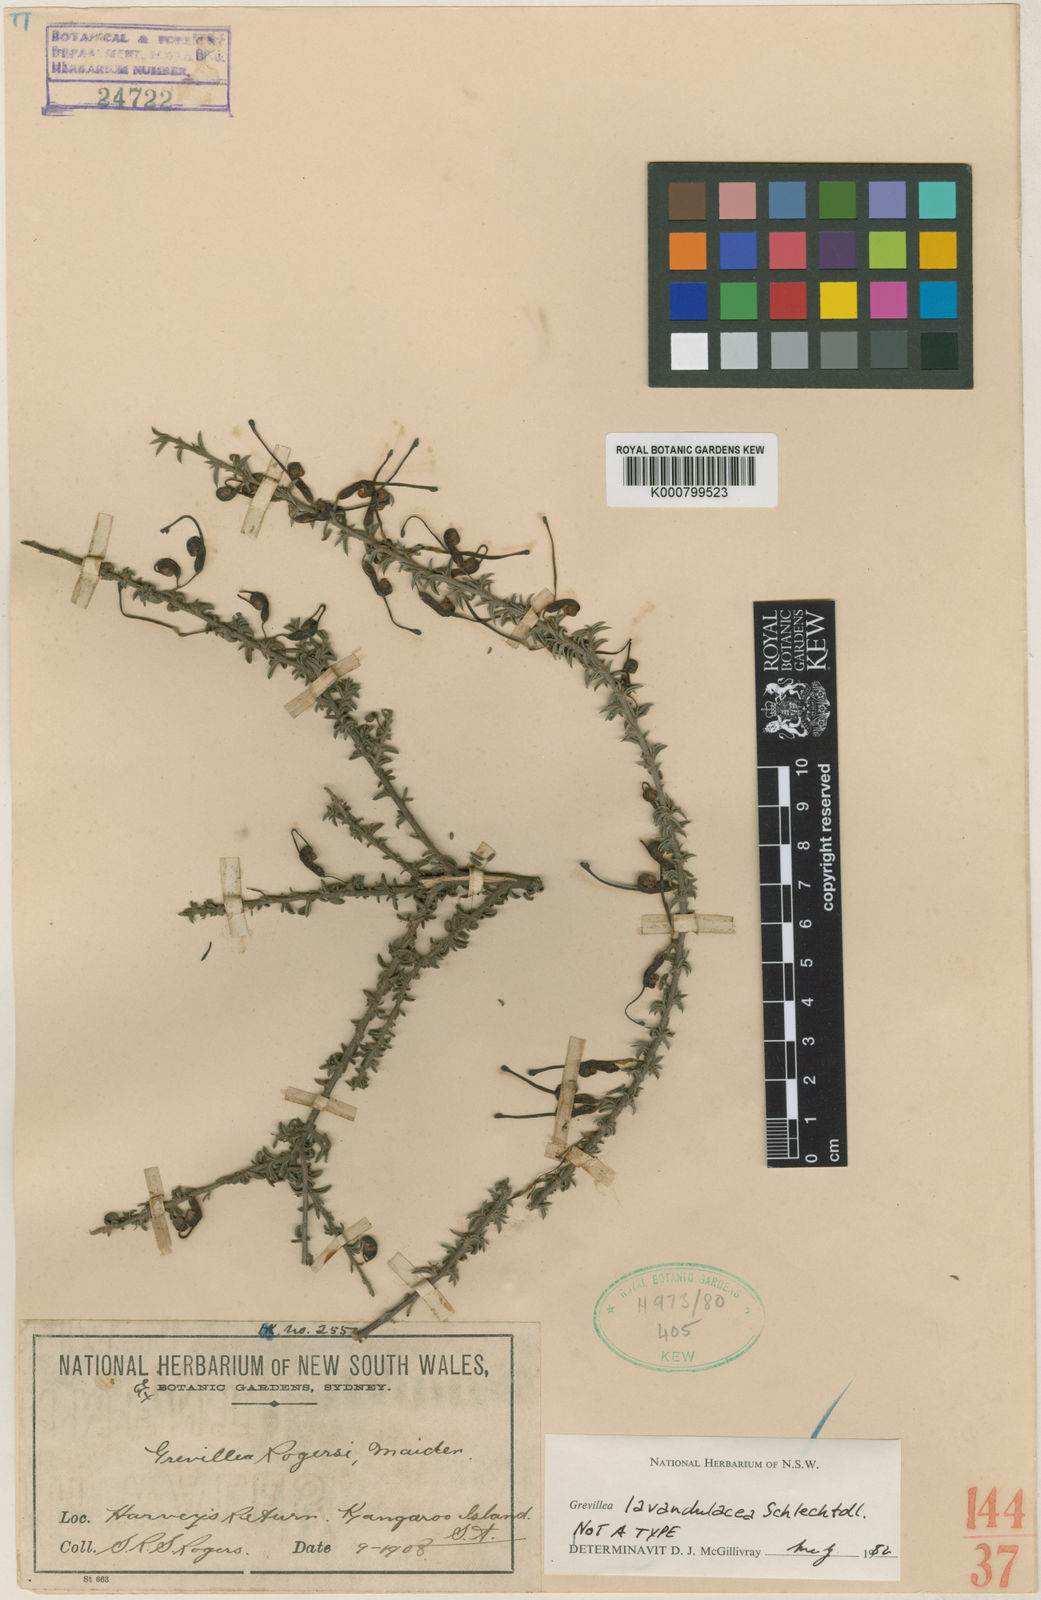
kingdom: Plantae
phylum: Tracheophyta
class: Magnoliopsida
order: Proteales
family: Proteaceae
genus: Grevillea
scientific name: Grevillea lavandulacea
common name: Lavender grevillea
